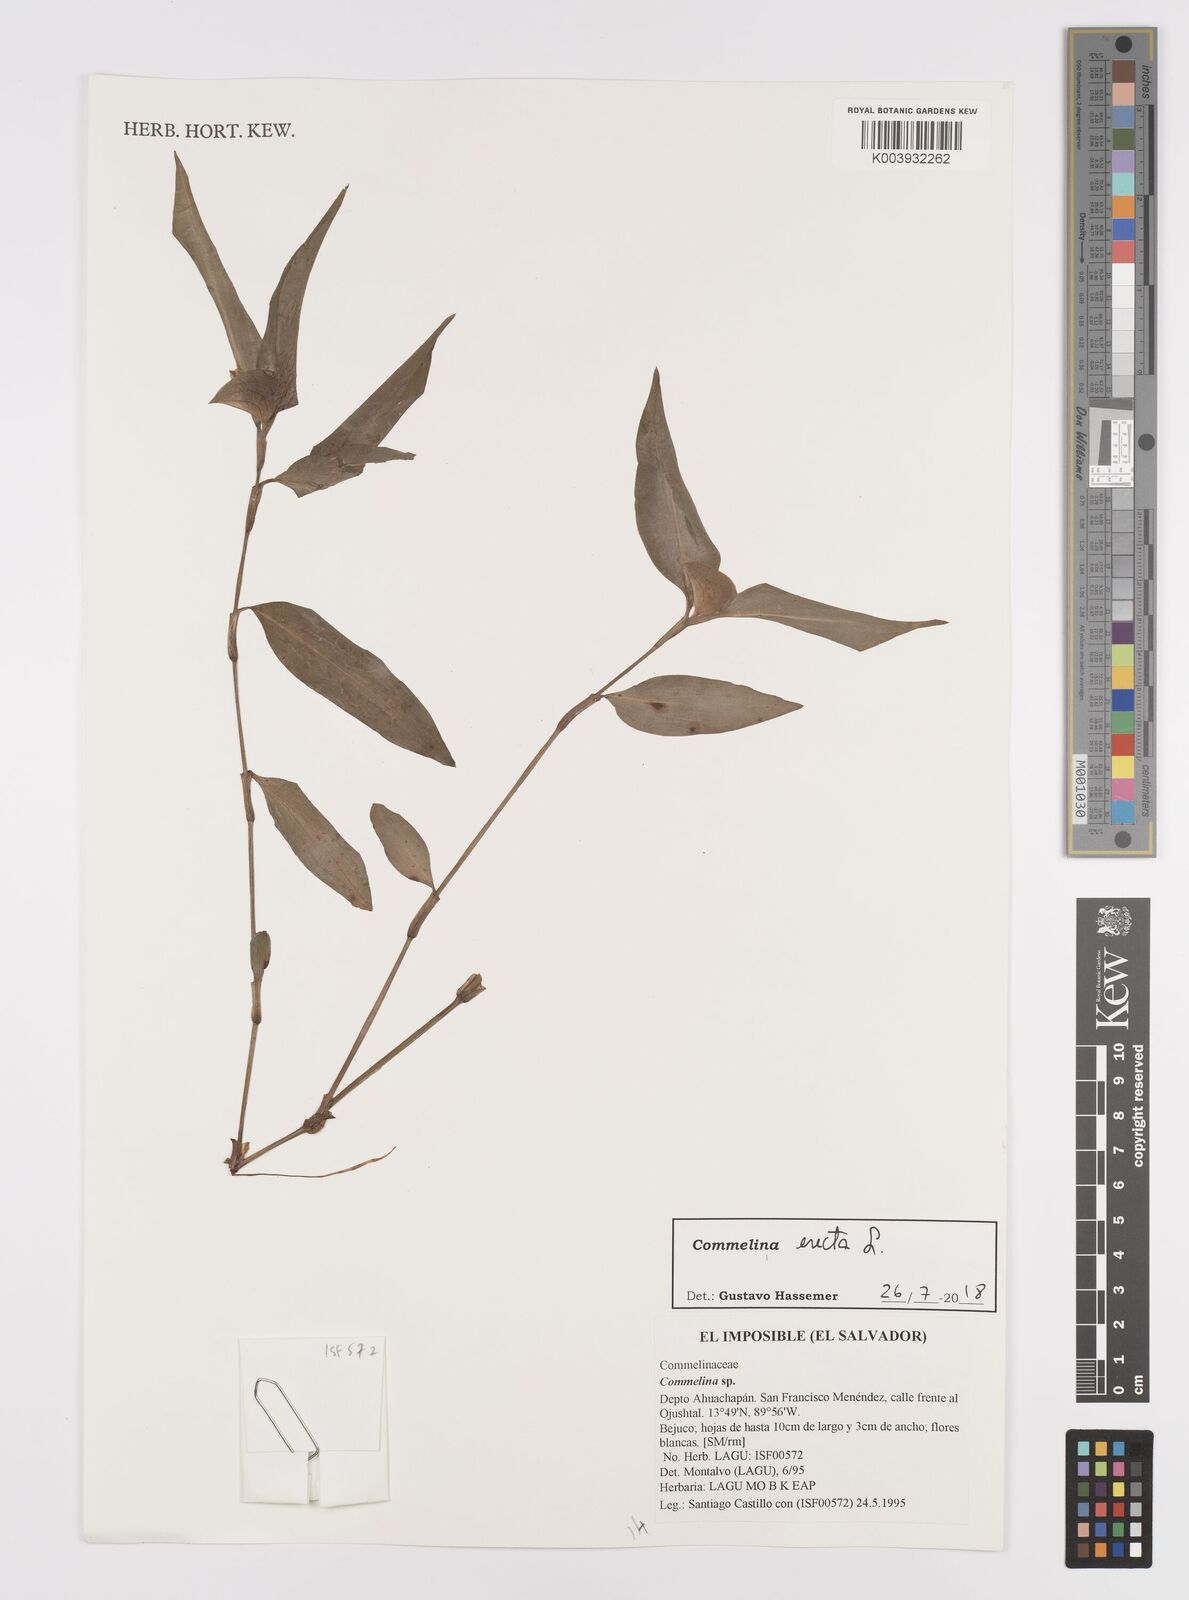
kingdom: Plantae
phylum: Tracheophyta
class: Liliopsida
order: Commelinales
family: Commelinaceae
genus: Commelina
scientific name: Commelina erecta
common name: Blousel blommetjie
